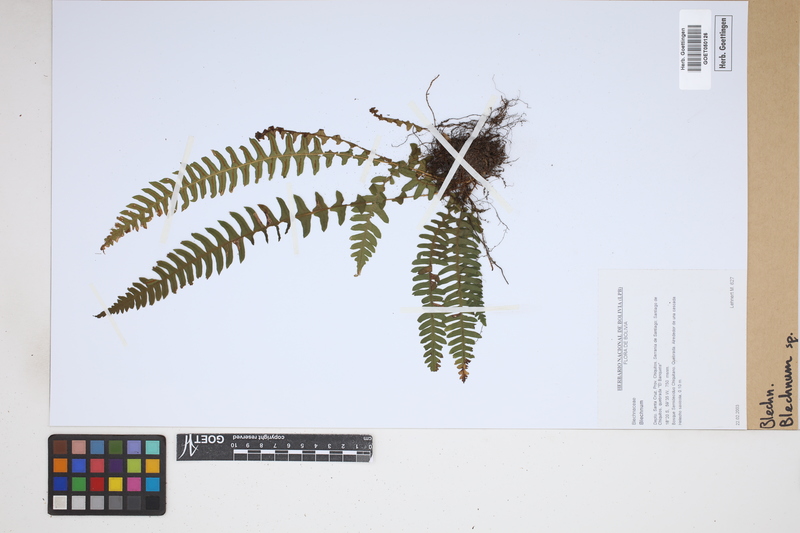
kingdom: Plantae
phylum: Tracheophyta
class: Polypodiopsida
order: Polypodiales
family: Blechnaceae
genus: Blechnum
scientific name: Blechnum
